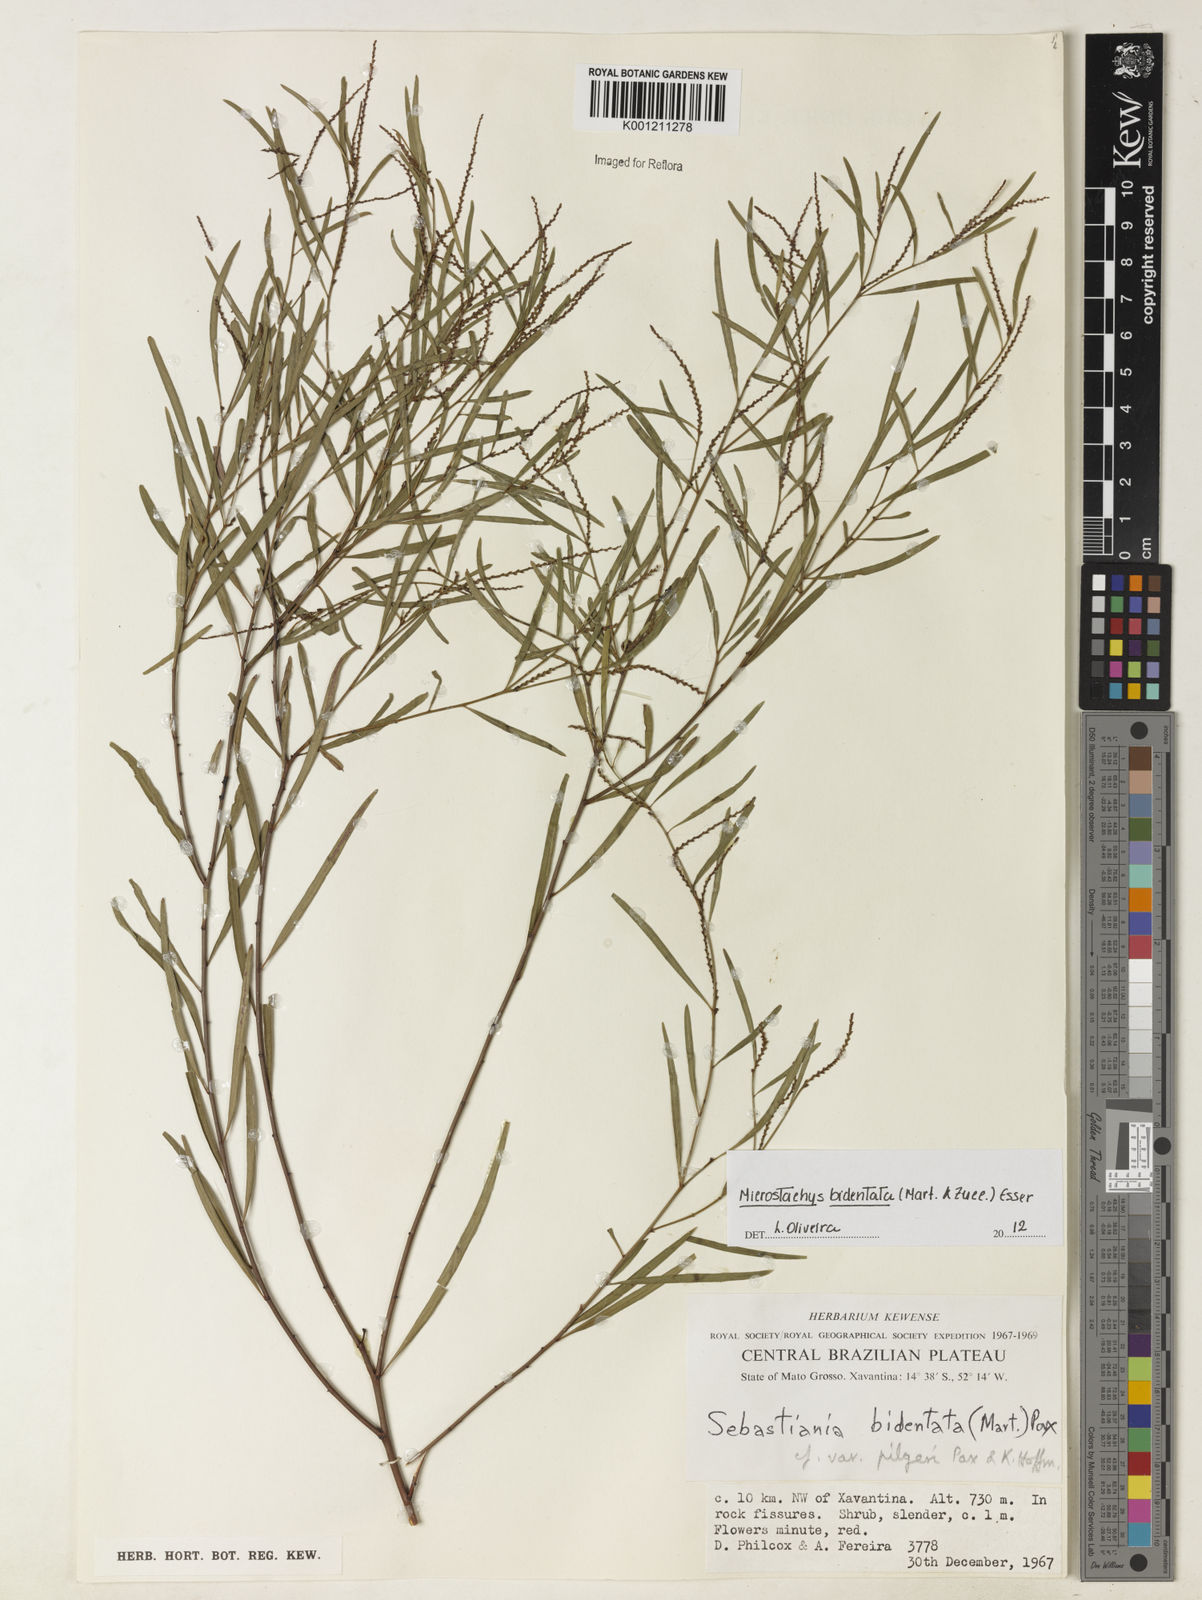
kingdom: Plantae
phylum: Tracheophyta
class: Magnoliopsida
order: Malpighiales
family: Euphorbiaceae
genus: Microstachys
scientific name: Microstachys bidentata
